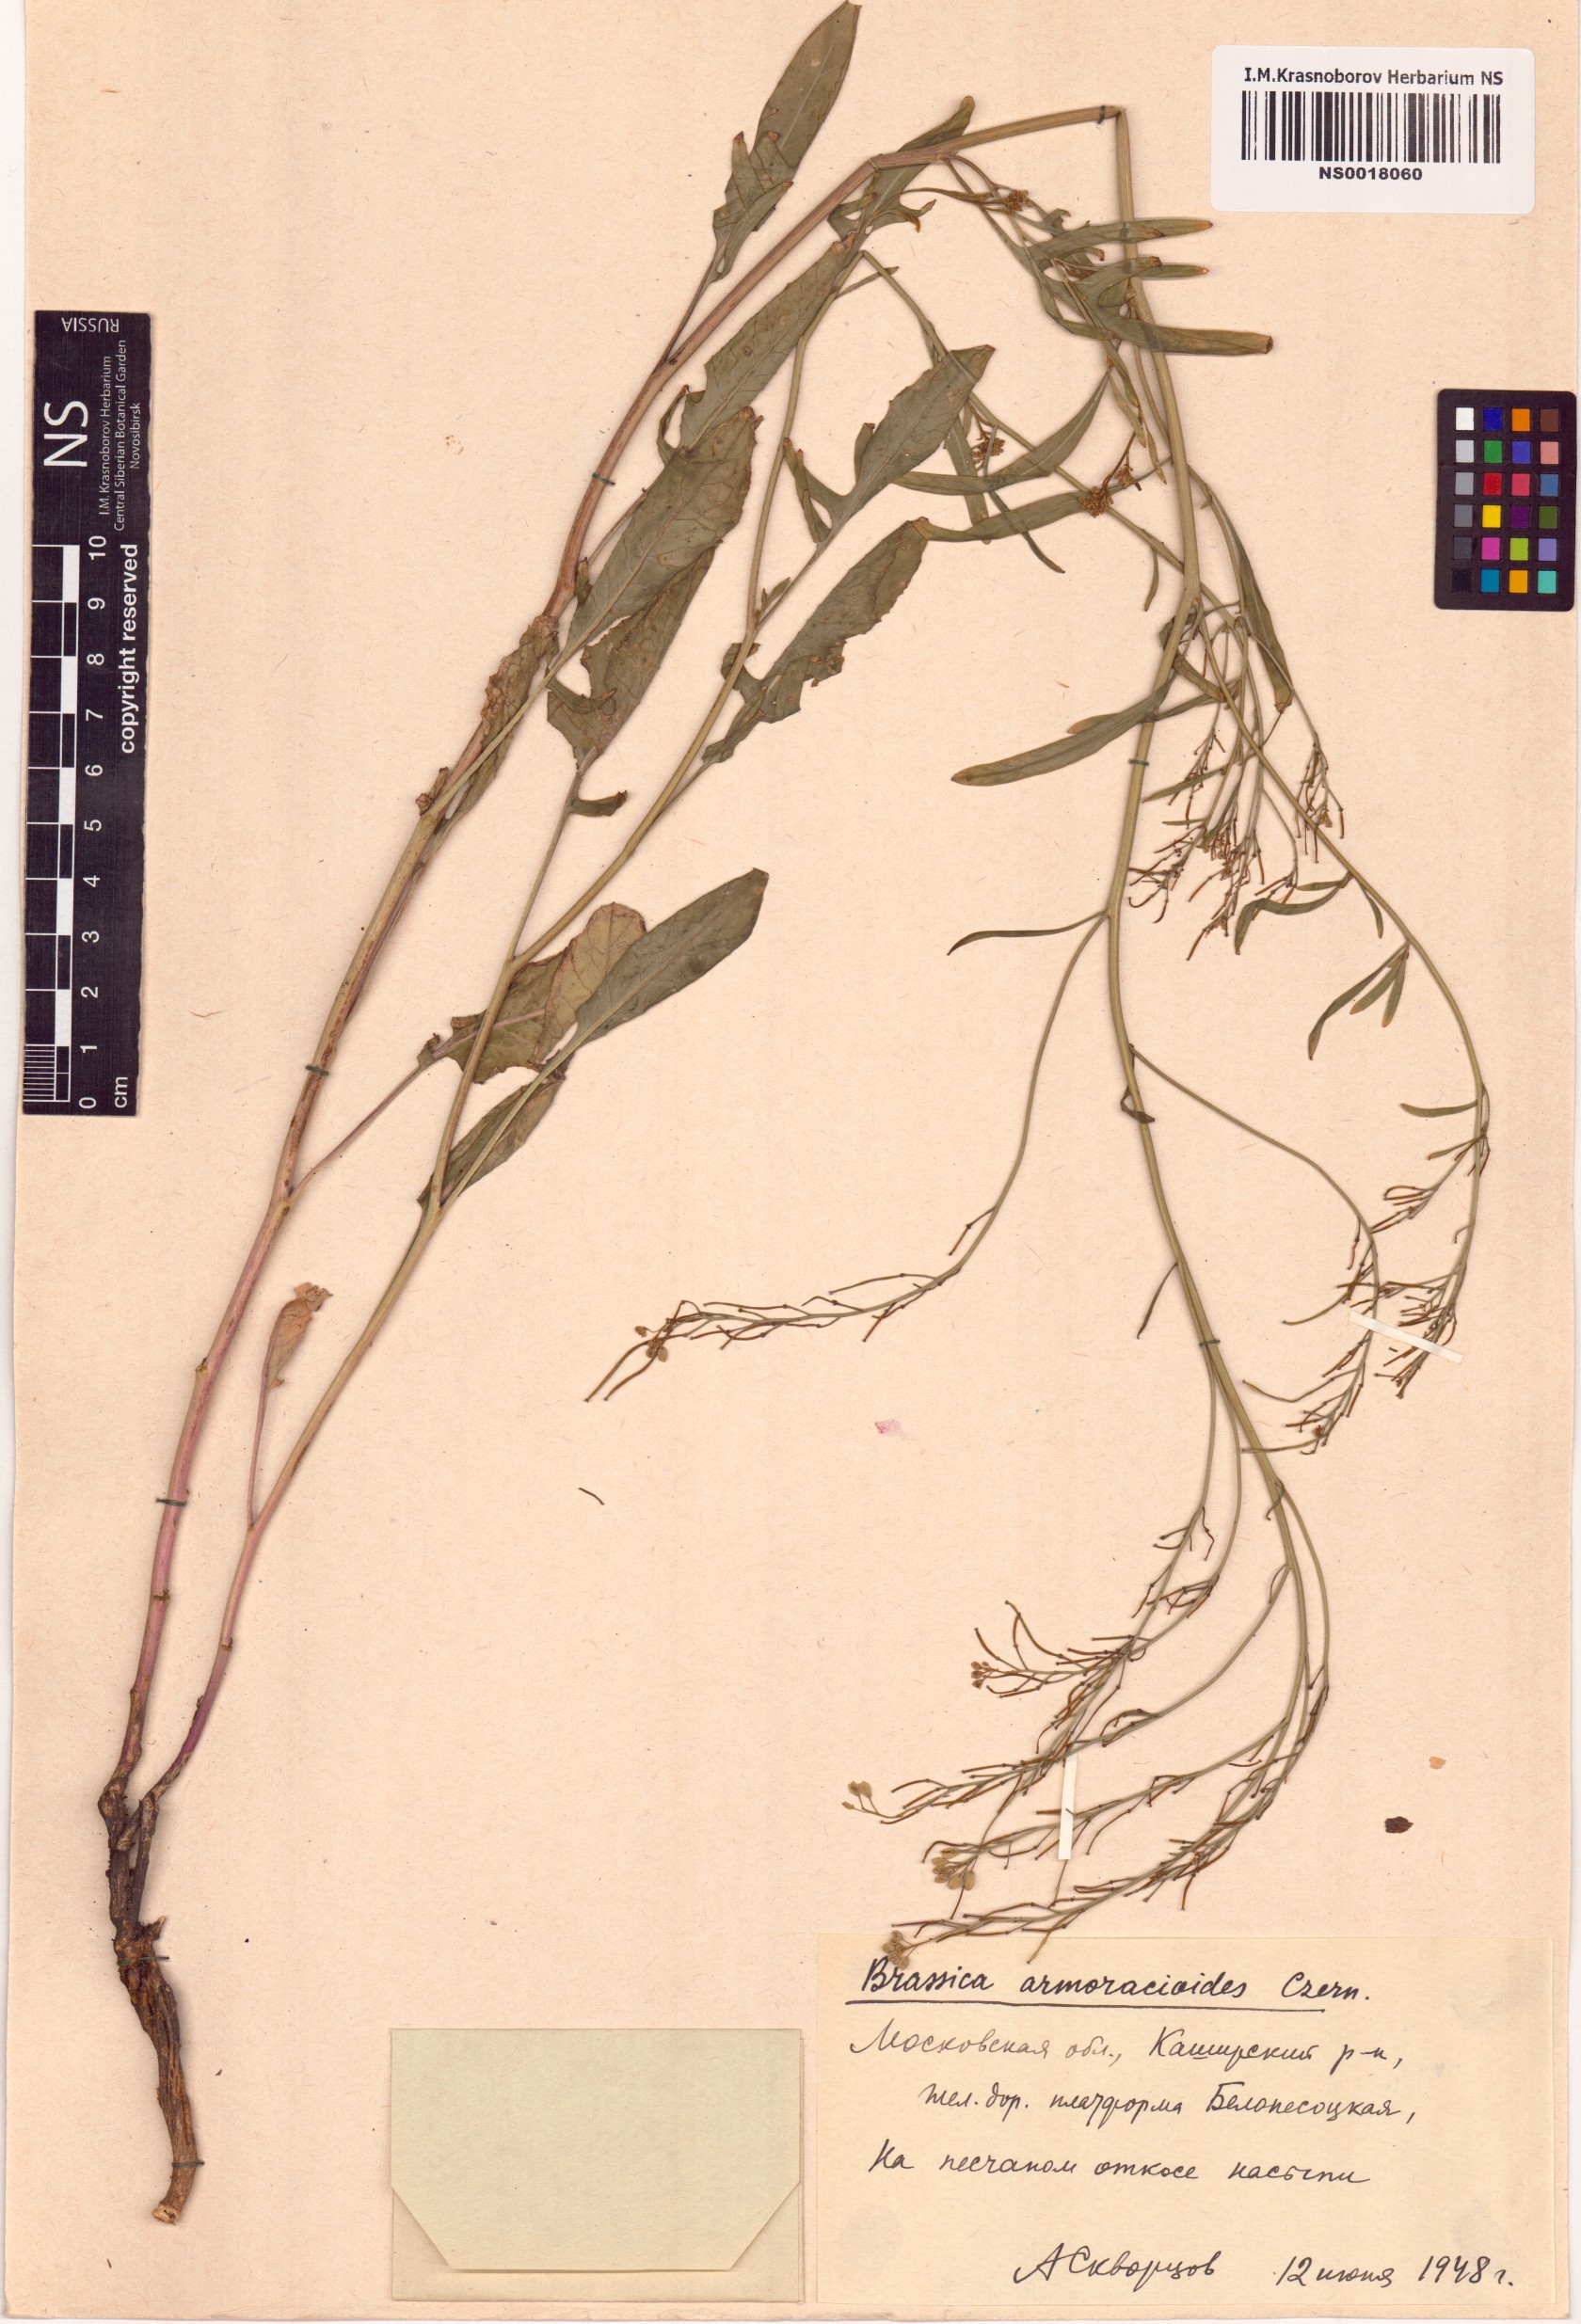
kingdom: Plantae
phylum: Tracheophyta
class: Magnoliopsida
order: Brassicales
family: Brassicaceae
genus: Brassica
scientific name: Brassica elongata
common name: Long-stalked rape
